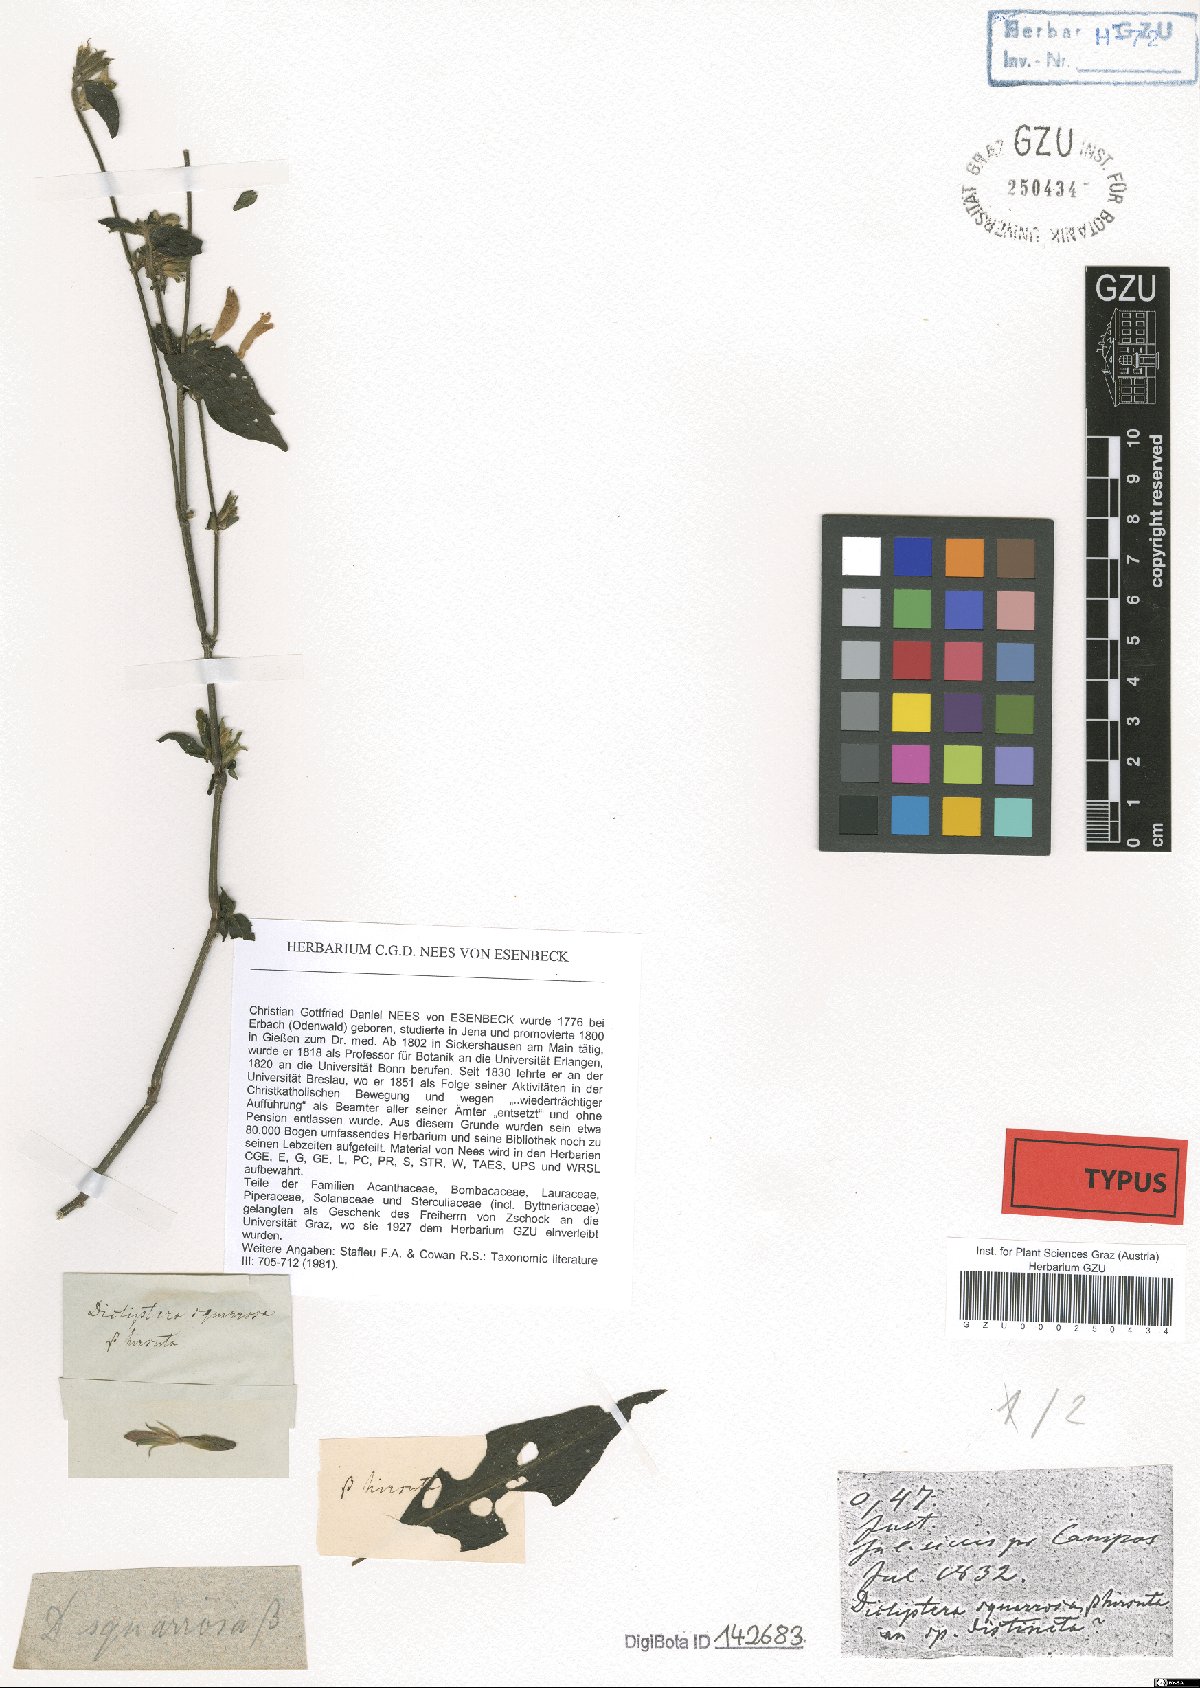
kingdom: Plantae
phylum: Tracheophyta
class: Magnoliopsida
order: Lamiales
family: Acanthaceae
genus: Dicliptera
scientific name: Dicliptera squarrosa
